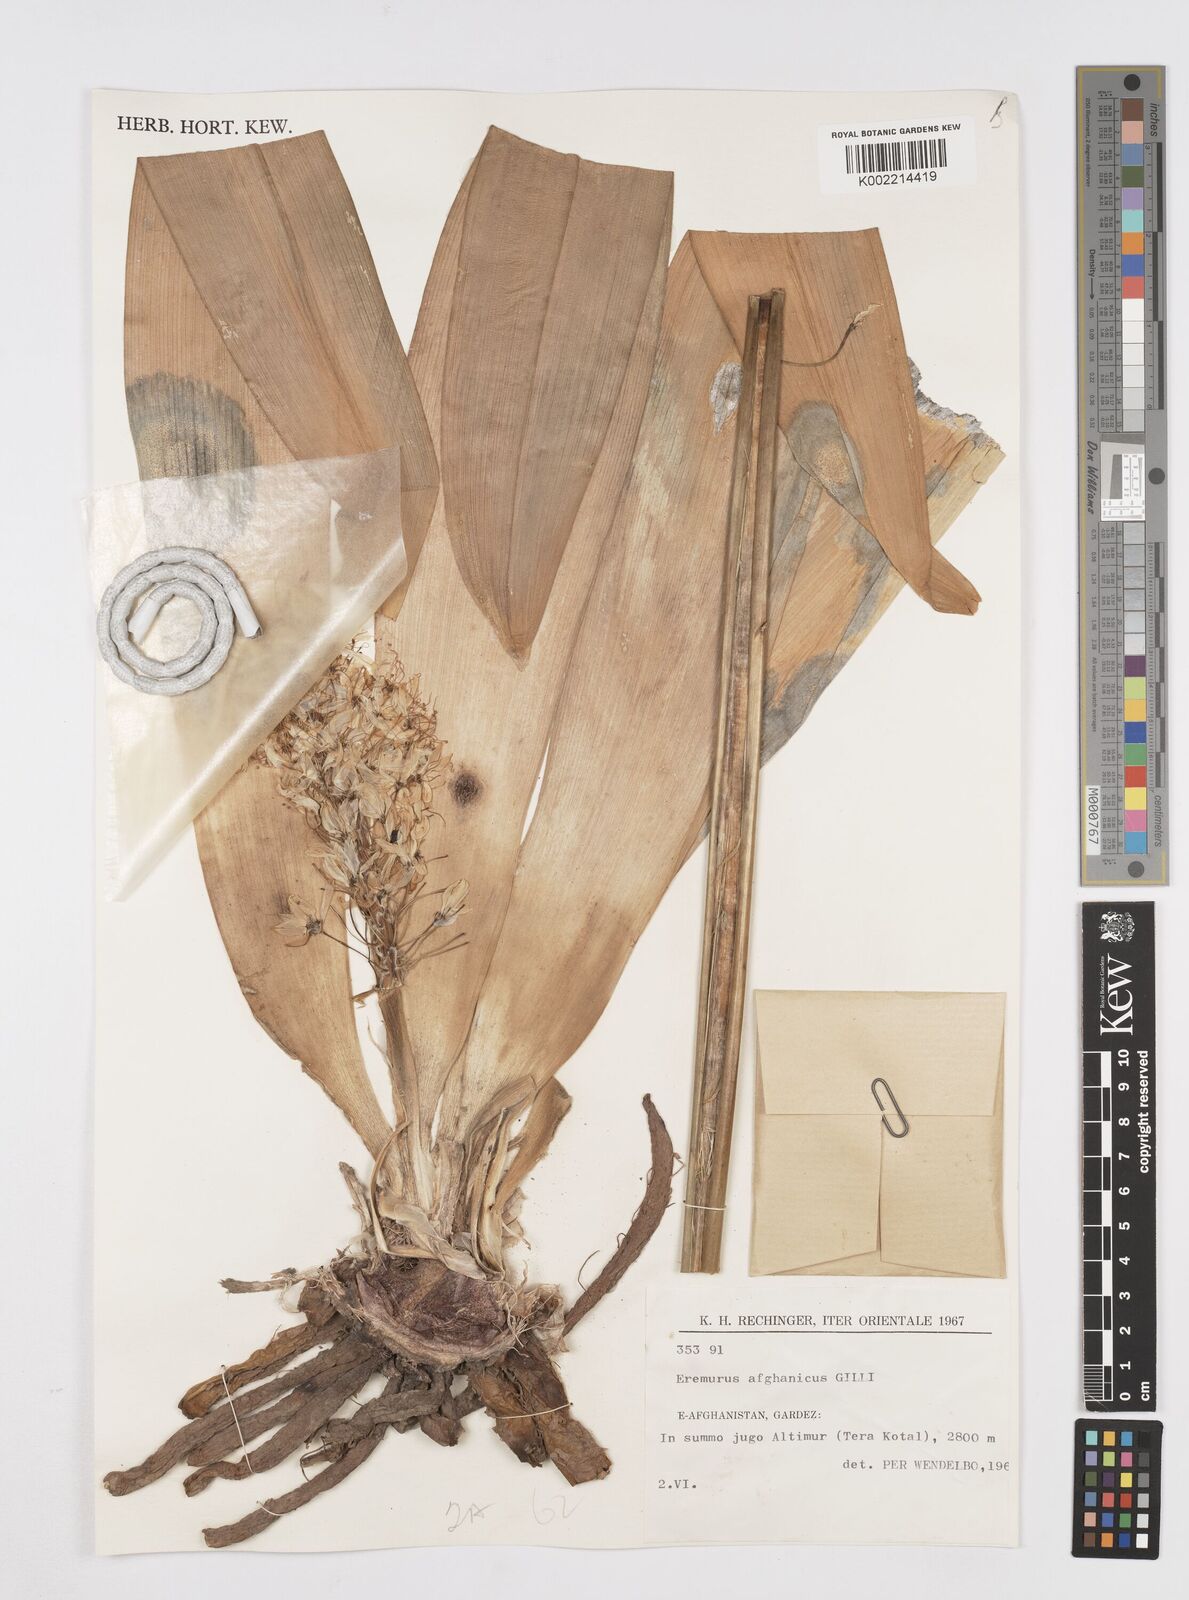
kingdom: Plantae
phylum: Tracheophyta
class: Liliopsida
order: Asparagales
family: Asphodelaceae
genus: Eremurus
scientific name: Eremurus afghanicus
